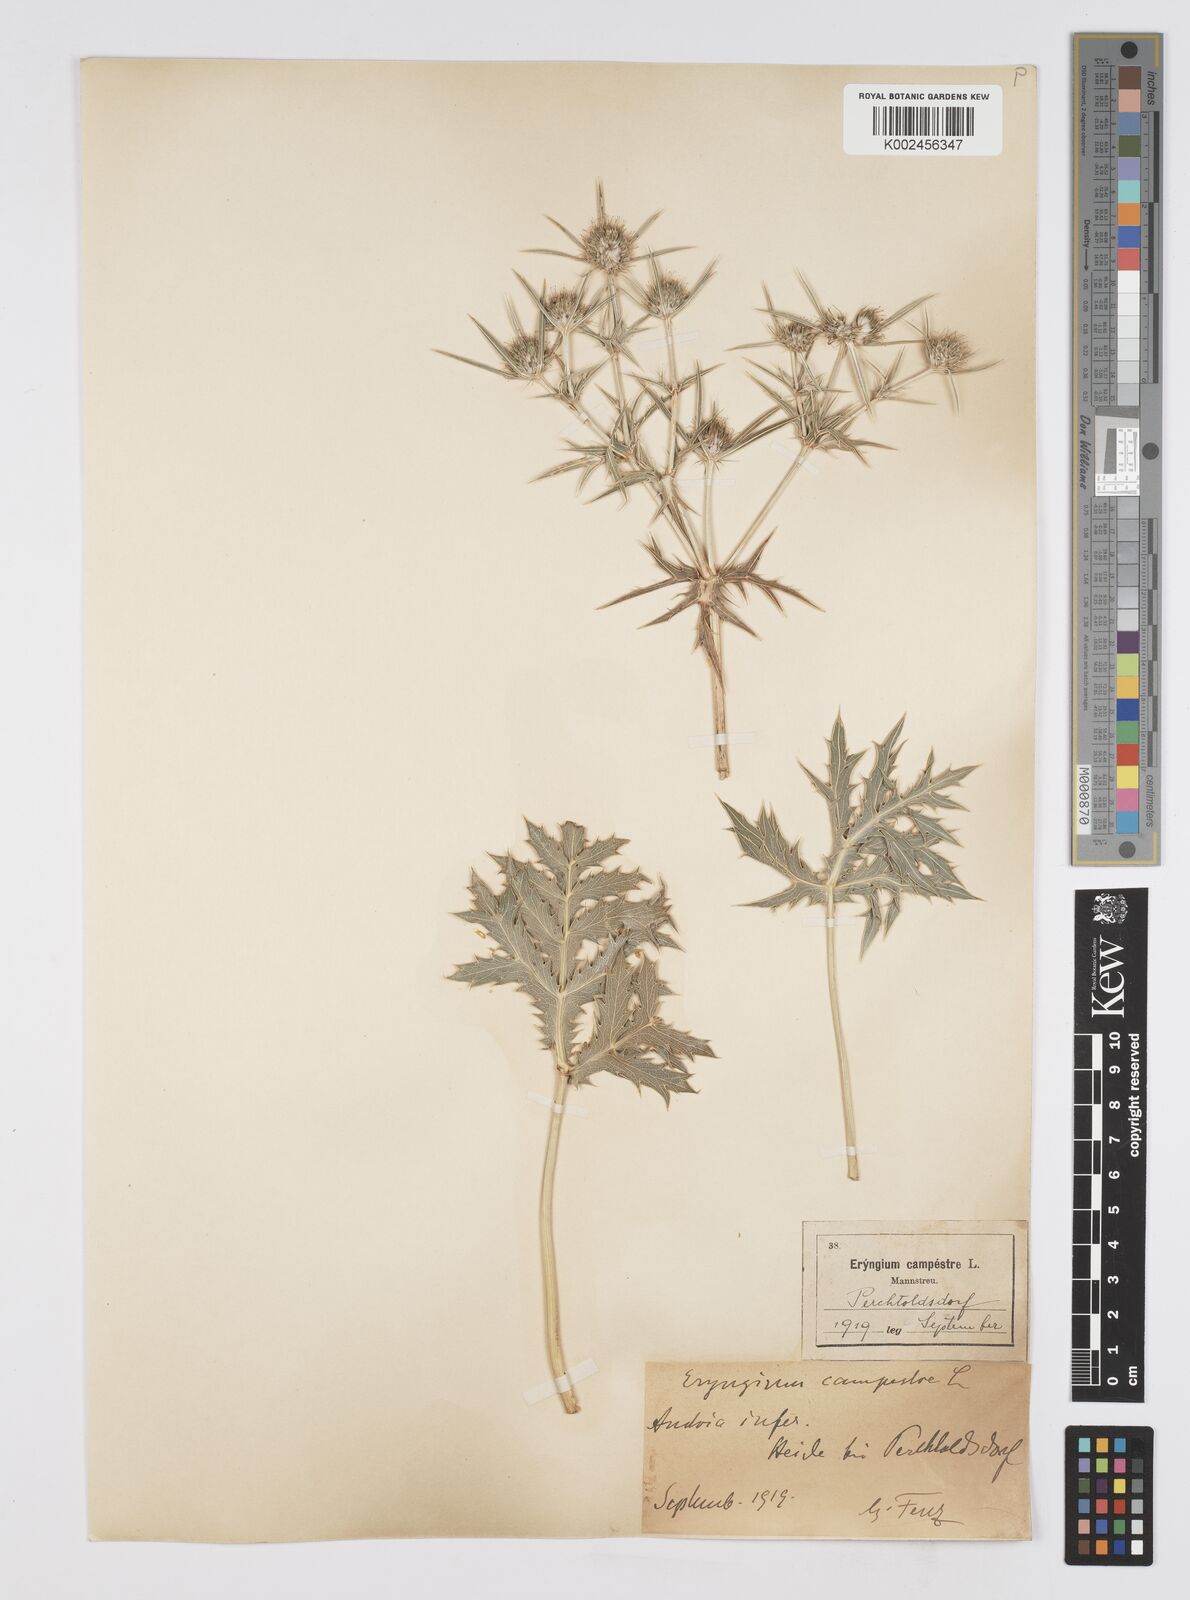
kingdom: Plantae
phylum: Tracheophyta
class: Magnoliopsida
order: Apiales
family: Apiaceae
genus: Eryngium
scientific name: Eryngium campestre
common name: Field eryngo
